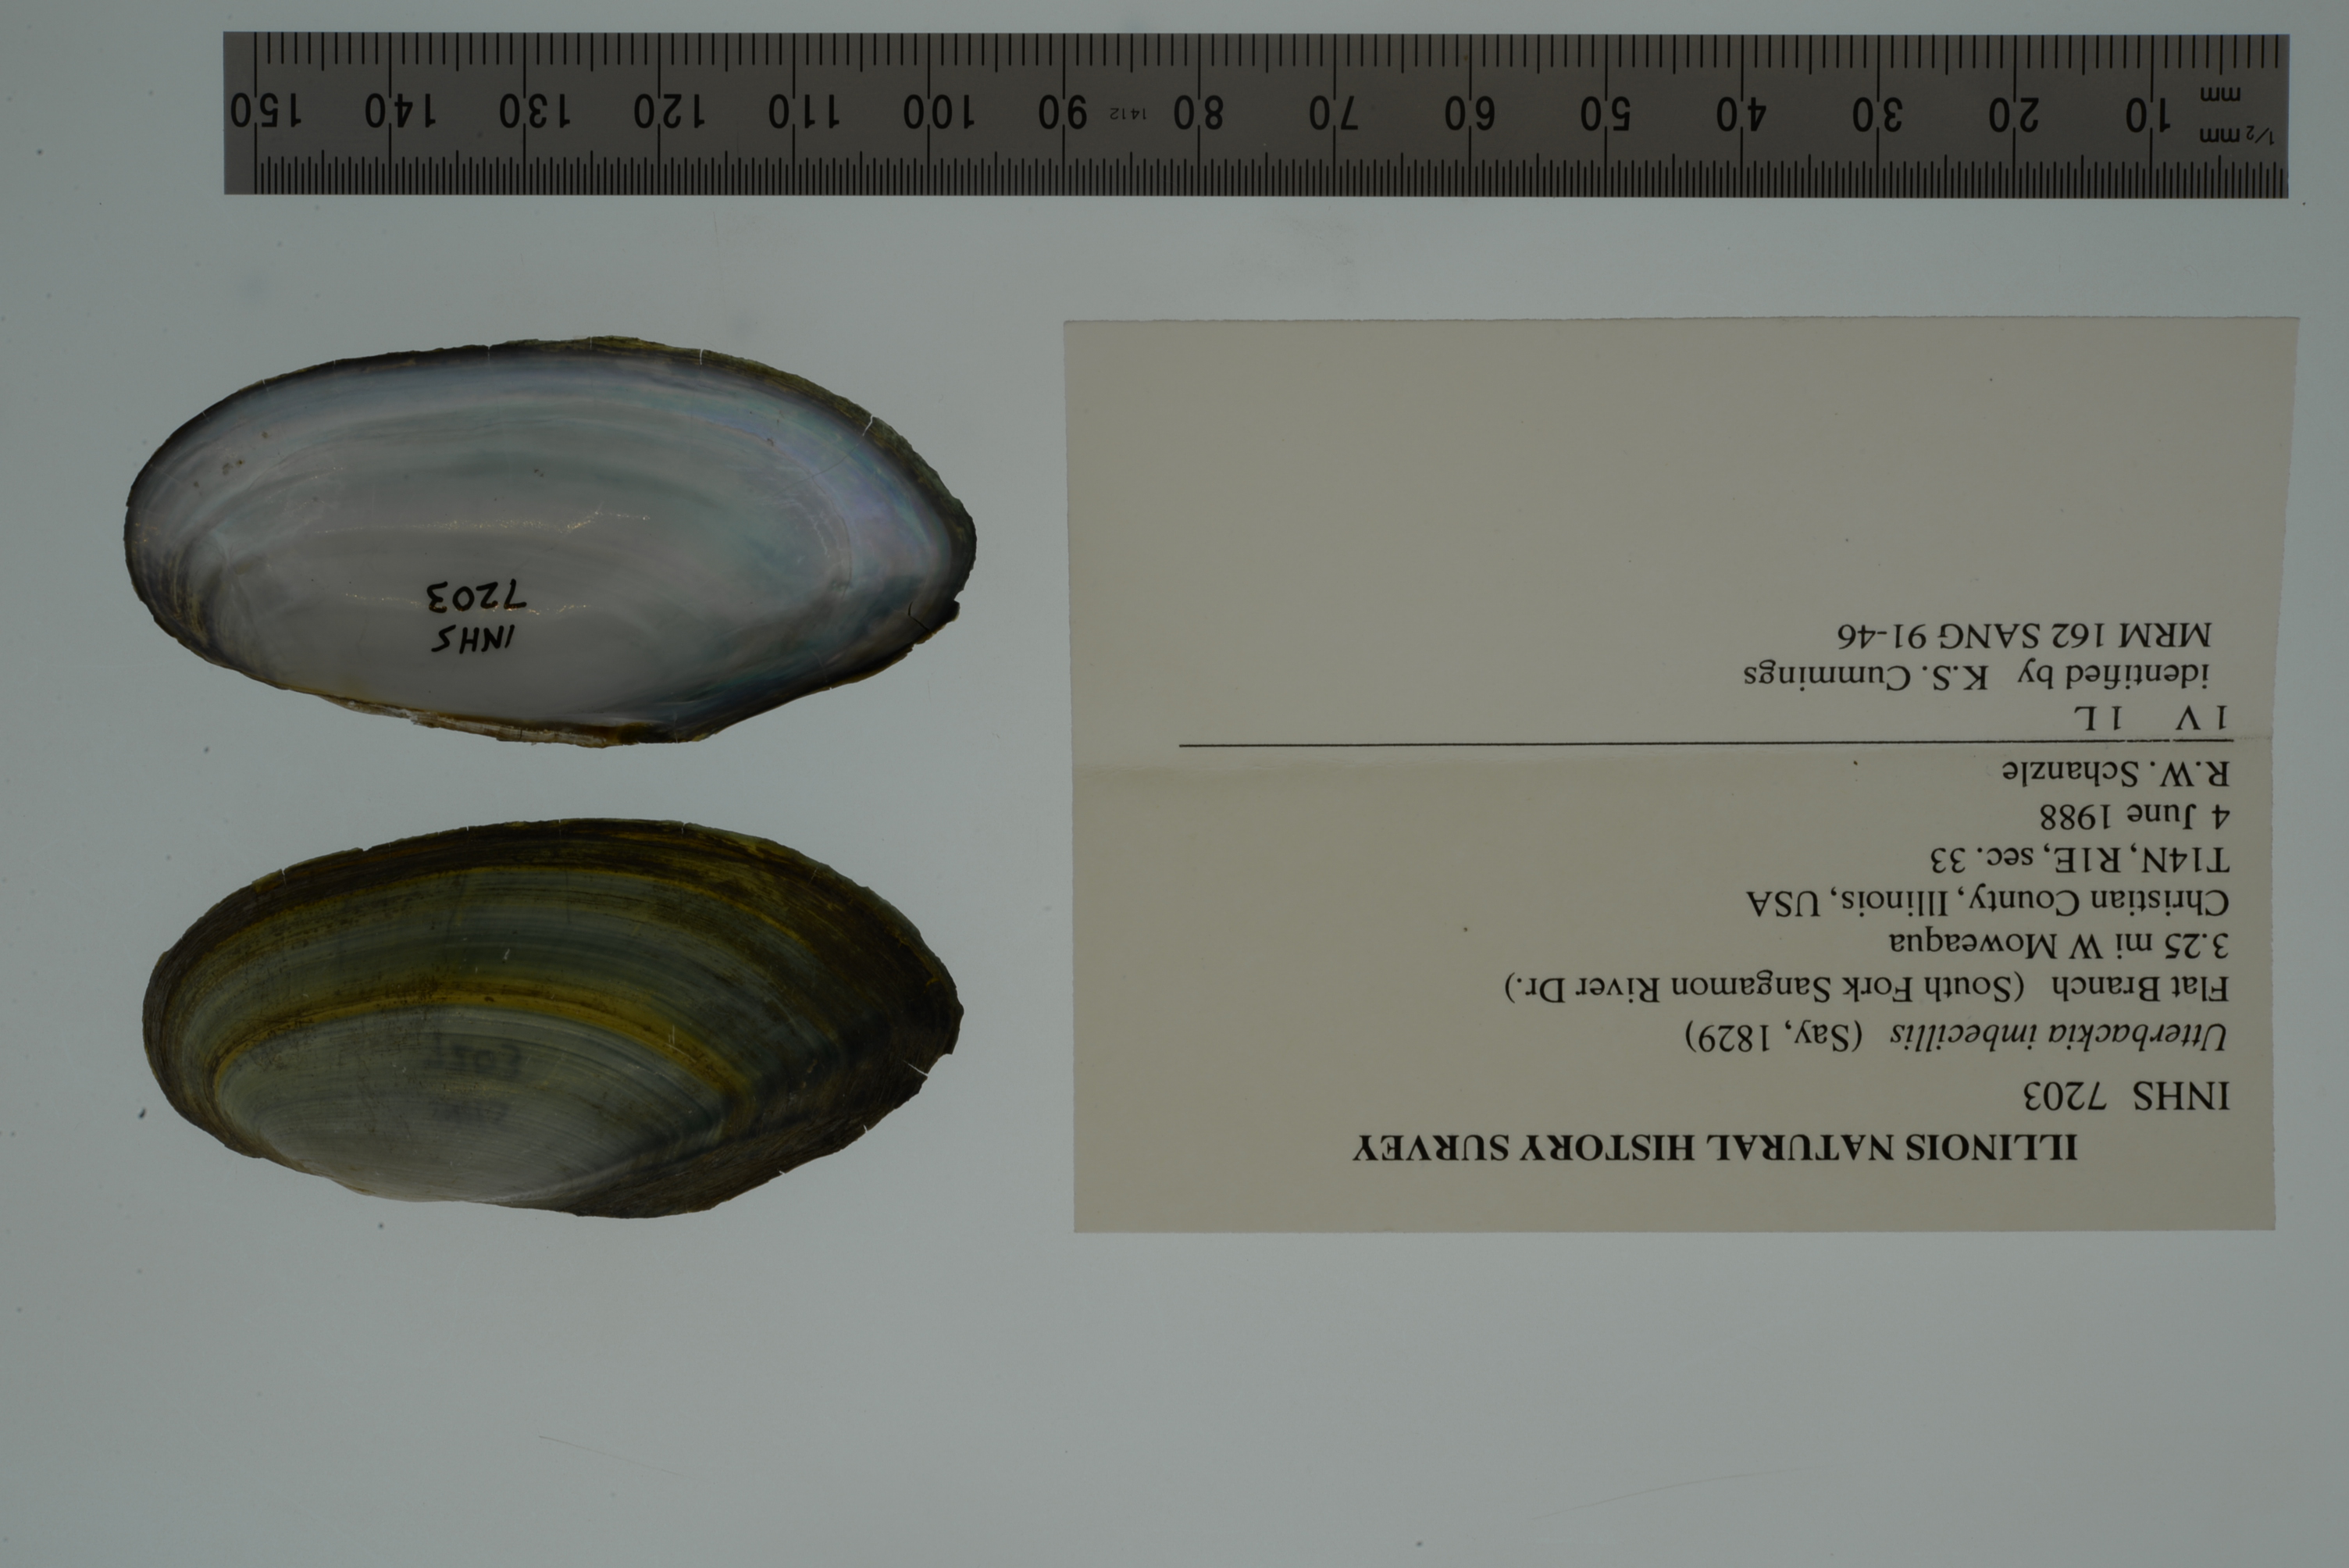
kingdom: Animalia
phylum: Mollusca
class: Bivalvia
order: Unionida
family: Unionidae
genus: Utterbackia
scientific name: Utterbackia imbecillis
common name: Paper pondshell
